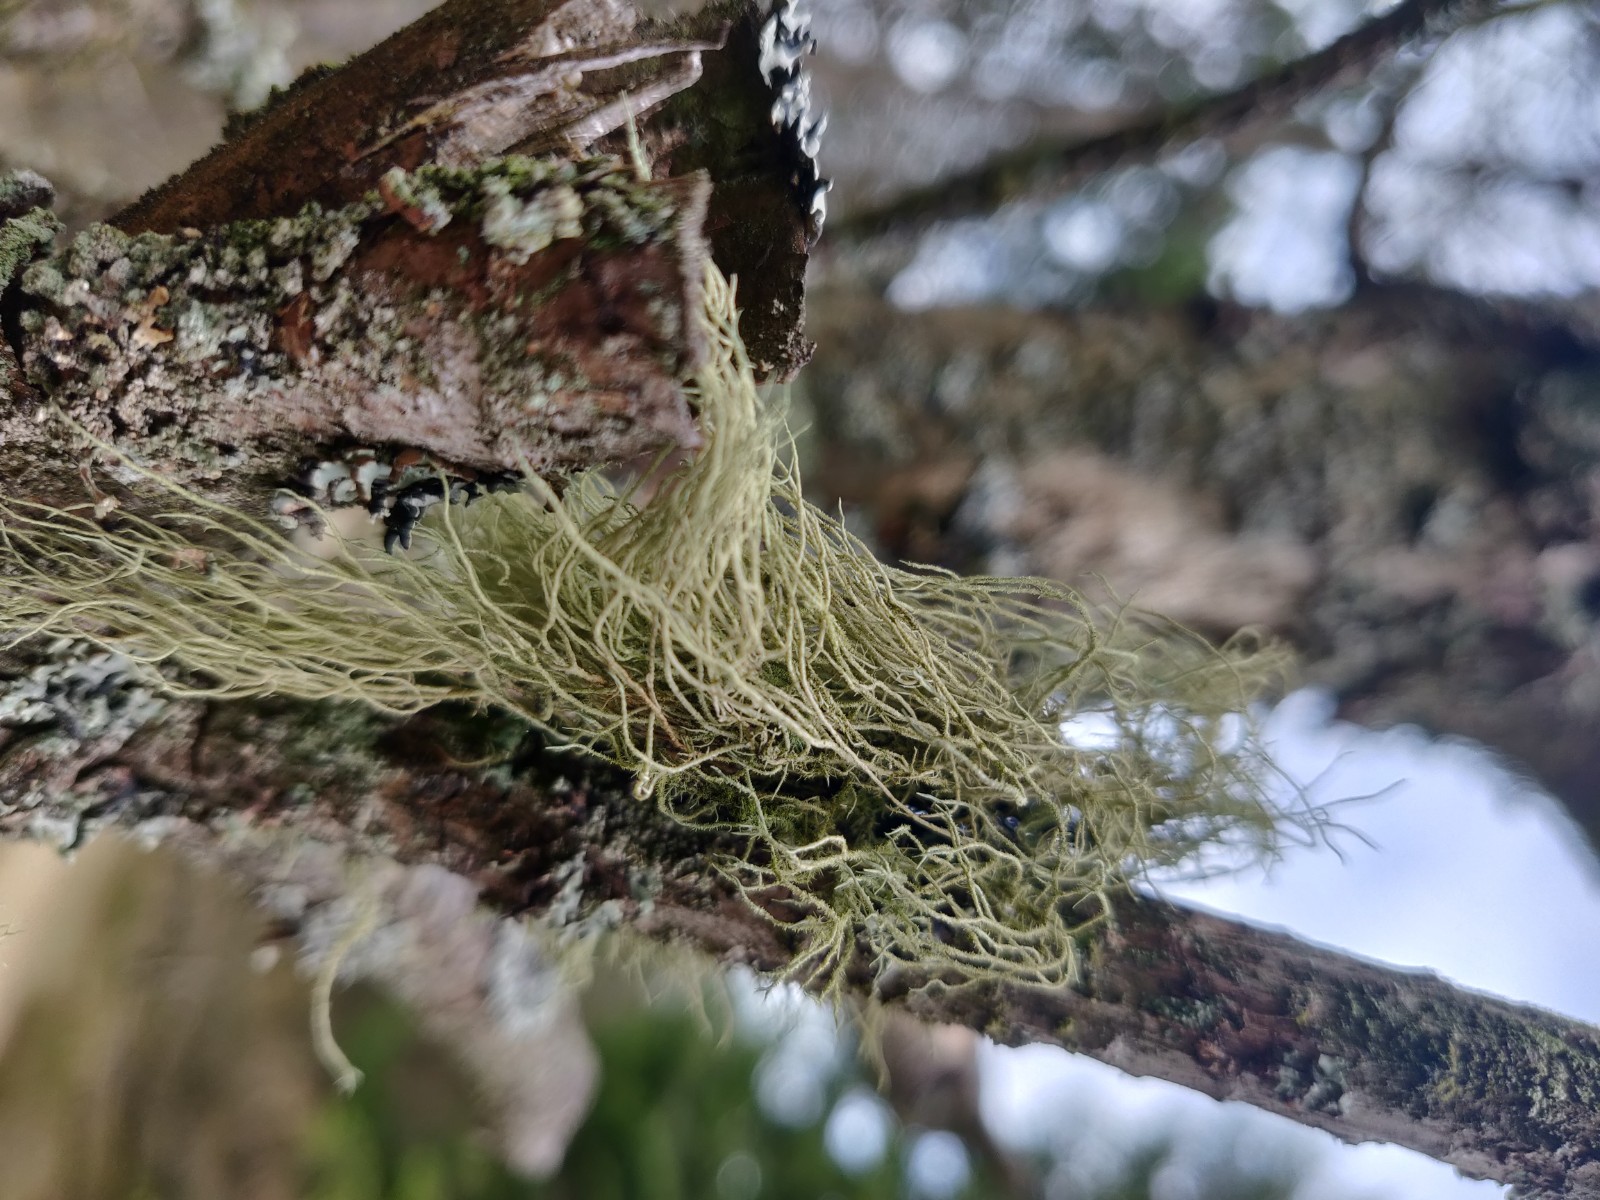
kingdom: Fungi
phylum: Ascomycota
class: Lecanoromycetes
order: Lecanorales
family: Parmeliaceae
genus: Usnea
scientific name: Usnea
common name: skæglav
